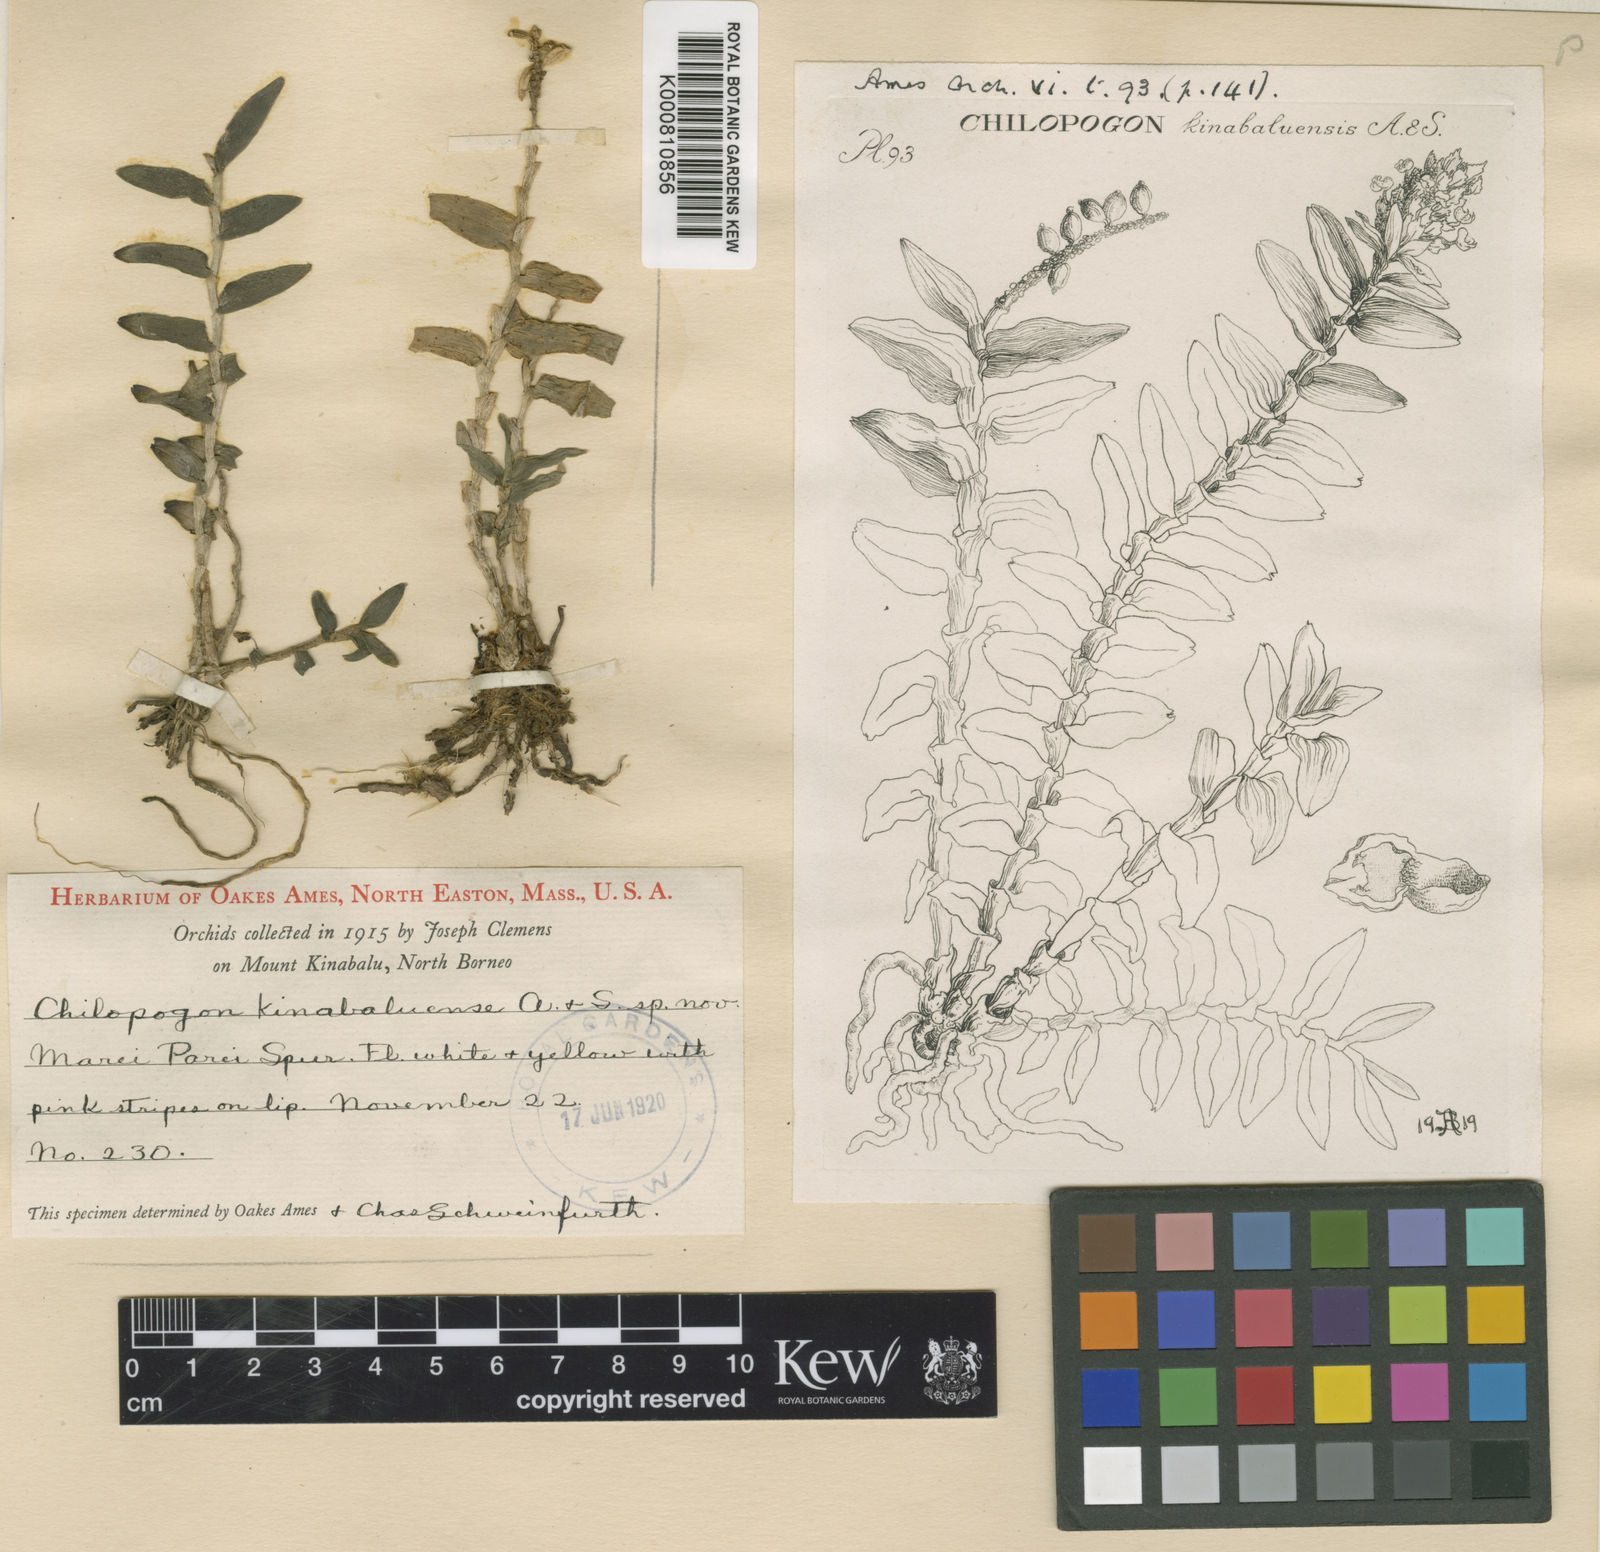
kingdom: Plantae
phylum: Tracheophyta
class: Liliopsida
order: Asparagales
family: Orchidaceae
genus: Appendicula
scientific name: Appendicula congesta
